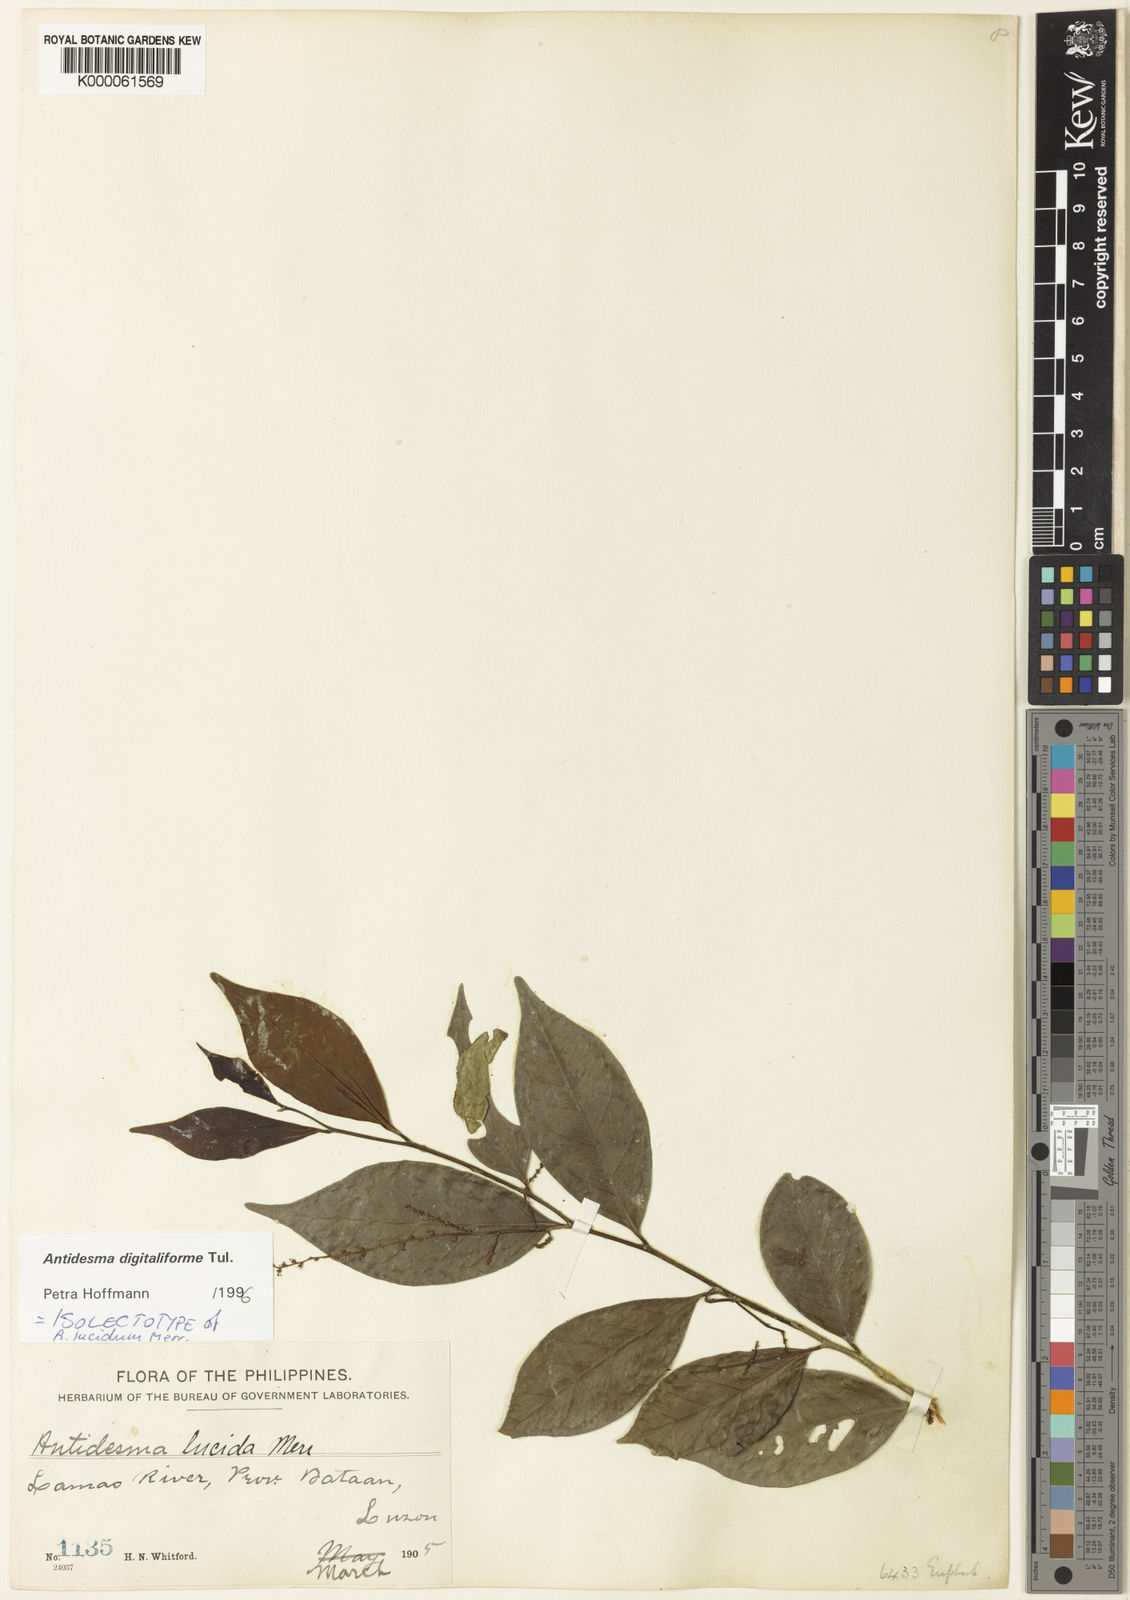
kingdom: Plantae
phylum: Tracheophyta
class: Magnoliopsida
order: Malpighiales
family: Phyllanthaceae
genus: Antidesma
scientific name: Antidesma digitaliforme
